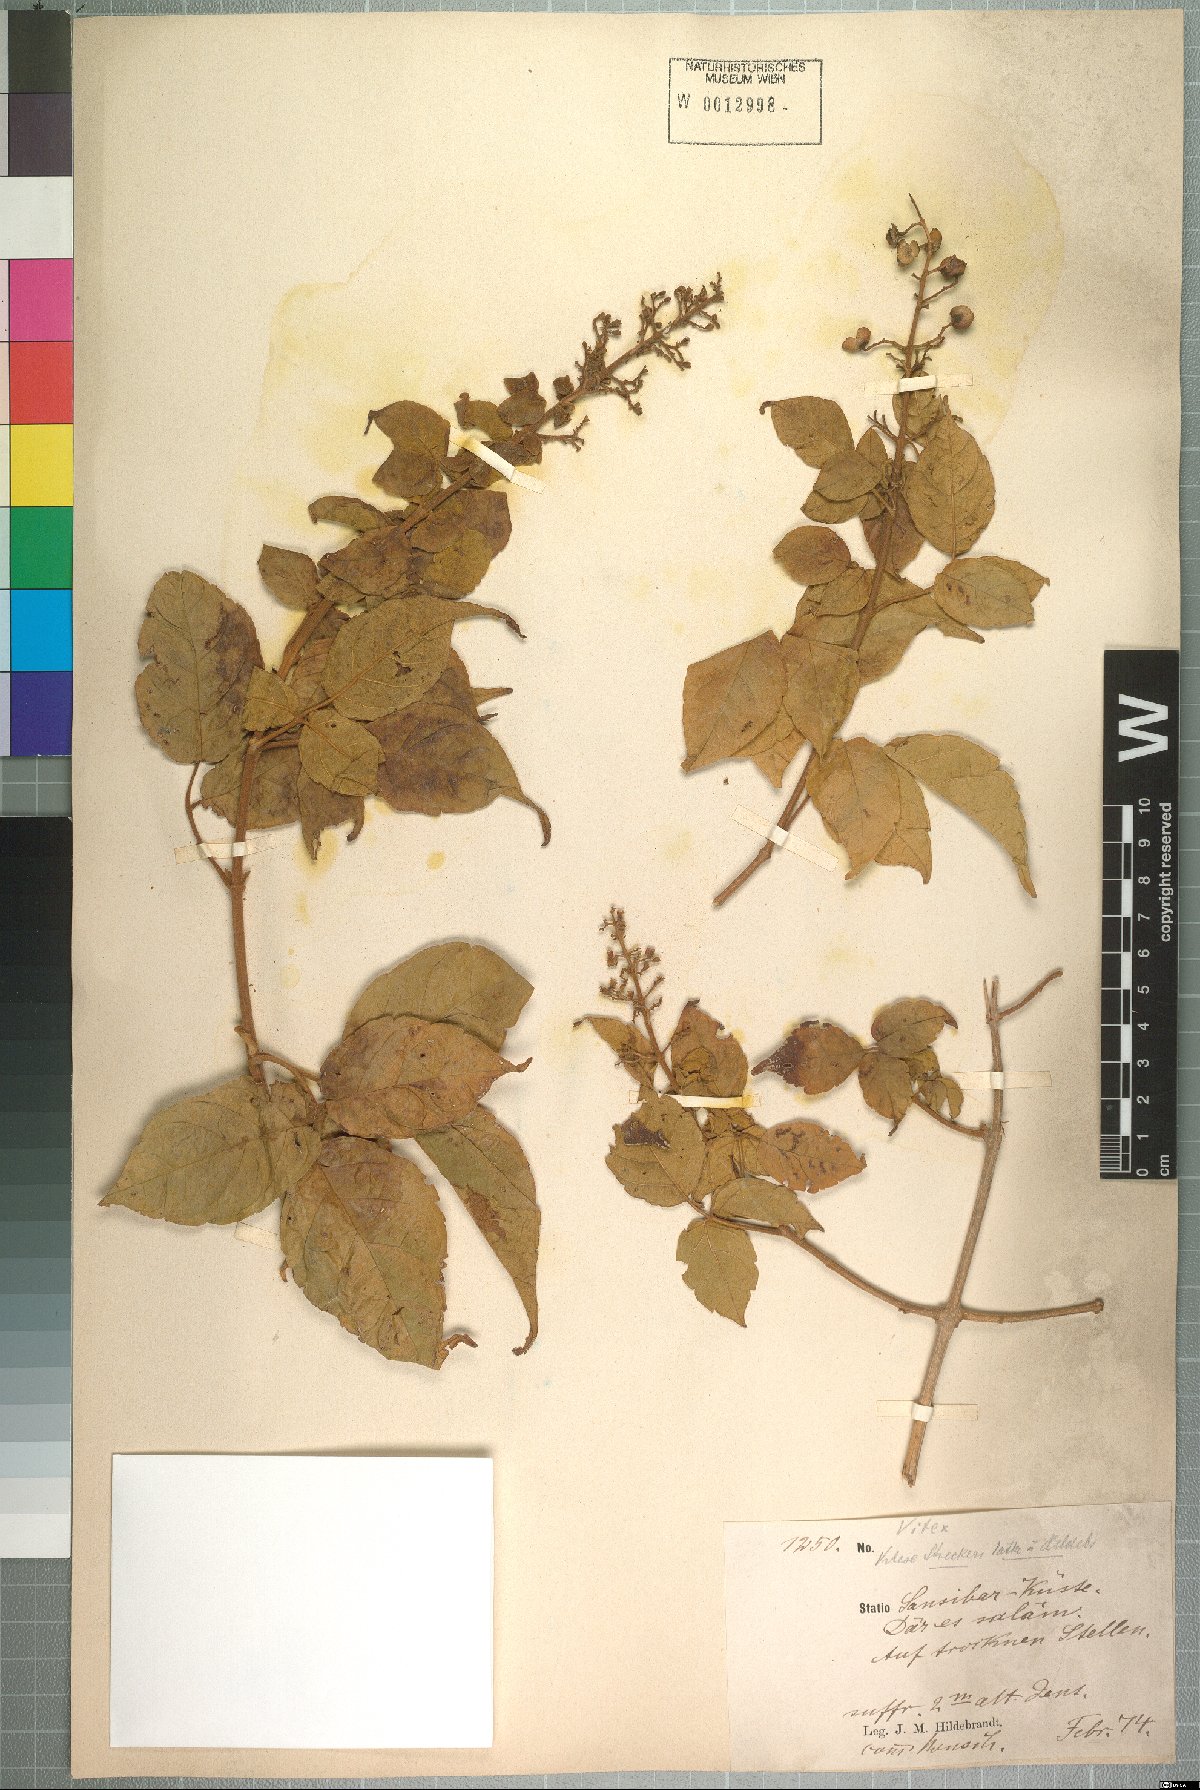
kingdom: Plantae
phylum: Tracheophyta
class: Magnoliopsida
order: Lamiales
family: Lamiaceae
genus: Vitex
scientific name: Vitex strickeri
